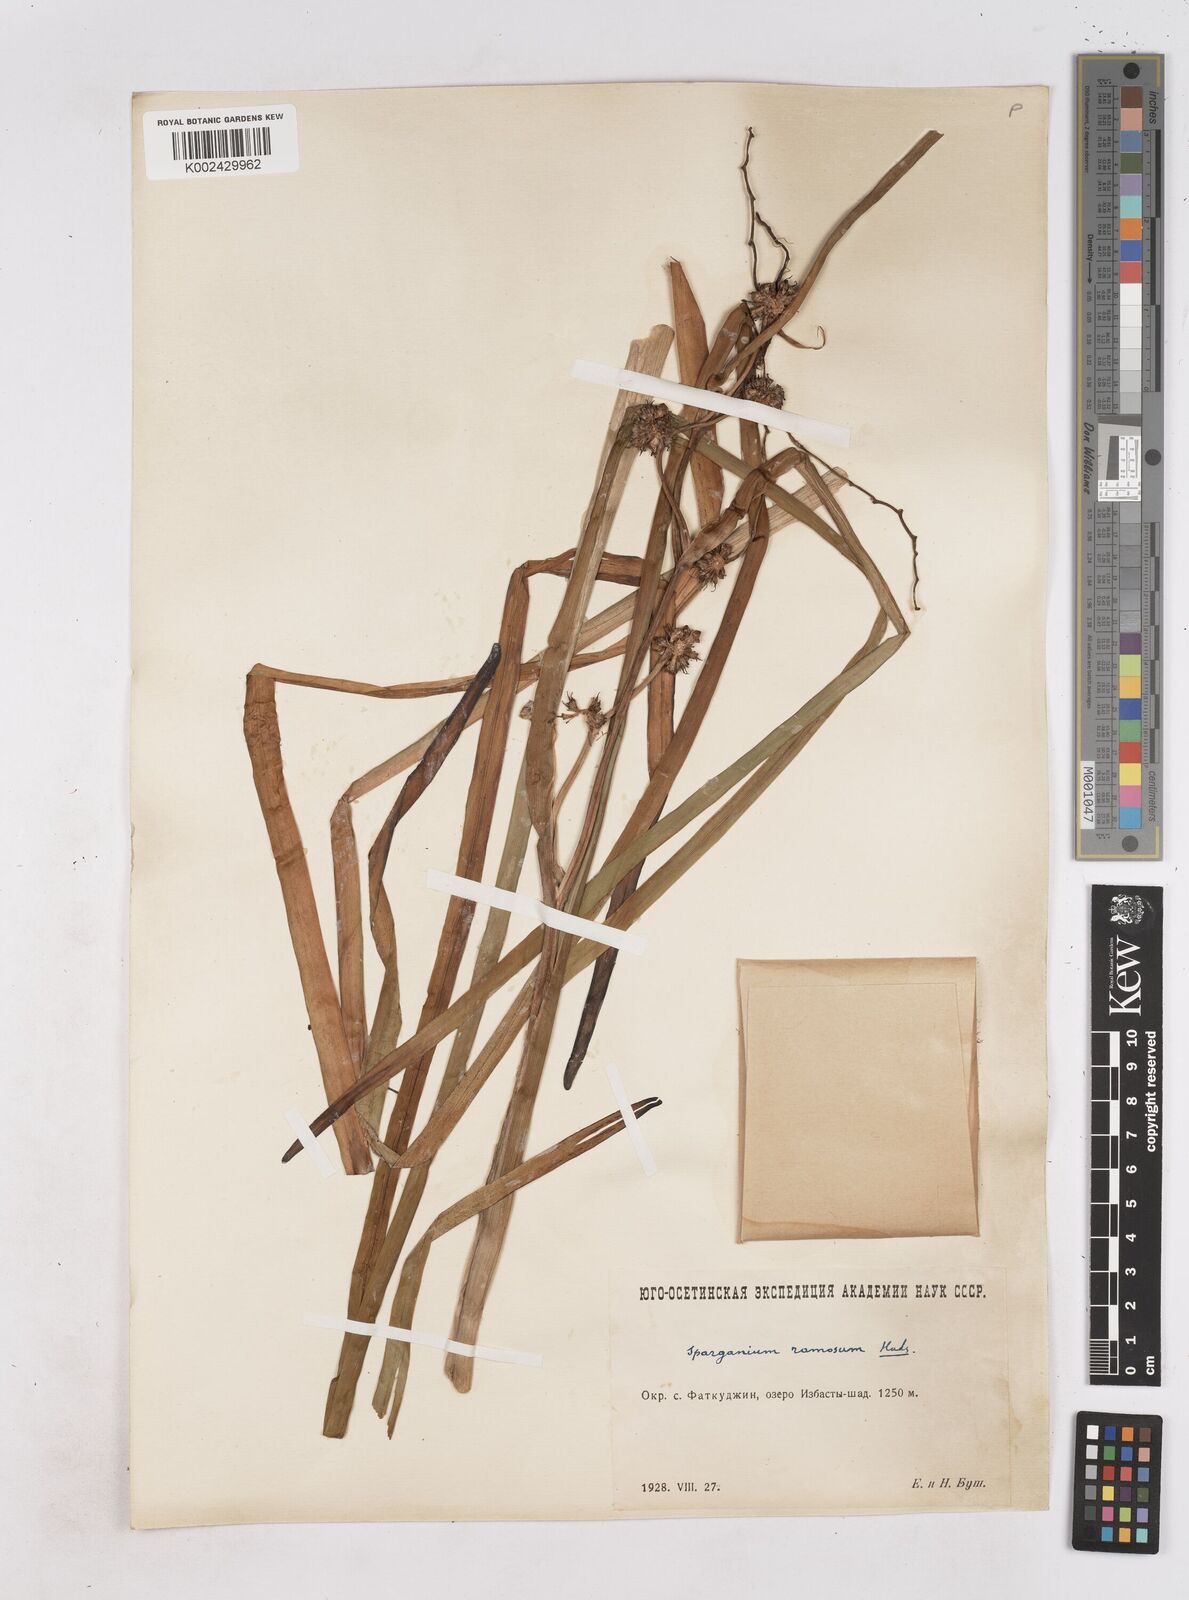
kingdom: Plantae
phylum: Tracheophyta
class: Liliopsida
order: Poales
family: Typhaceae
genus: Sparganium
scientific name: Sparganium erectum
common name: Branched bur-reed
